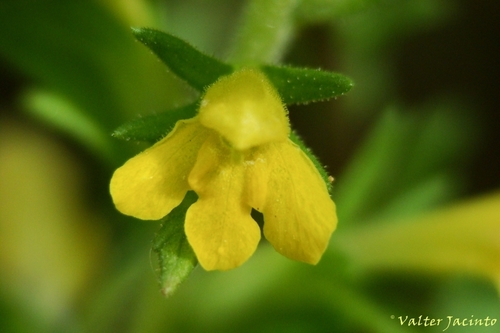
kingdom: Plantae
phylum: Tracheophyta
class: Magnoliopsida
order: Lamiales
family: Orobanchaceae
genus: Bellardia
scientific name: Bellardia viscosa
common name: Sticky parentucellia
